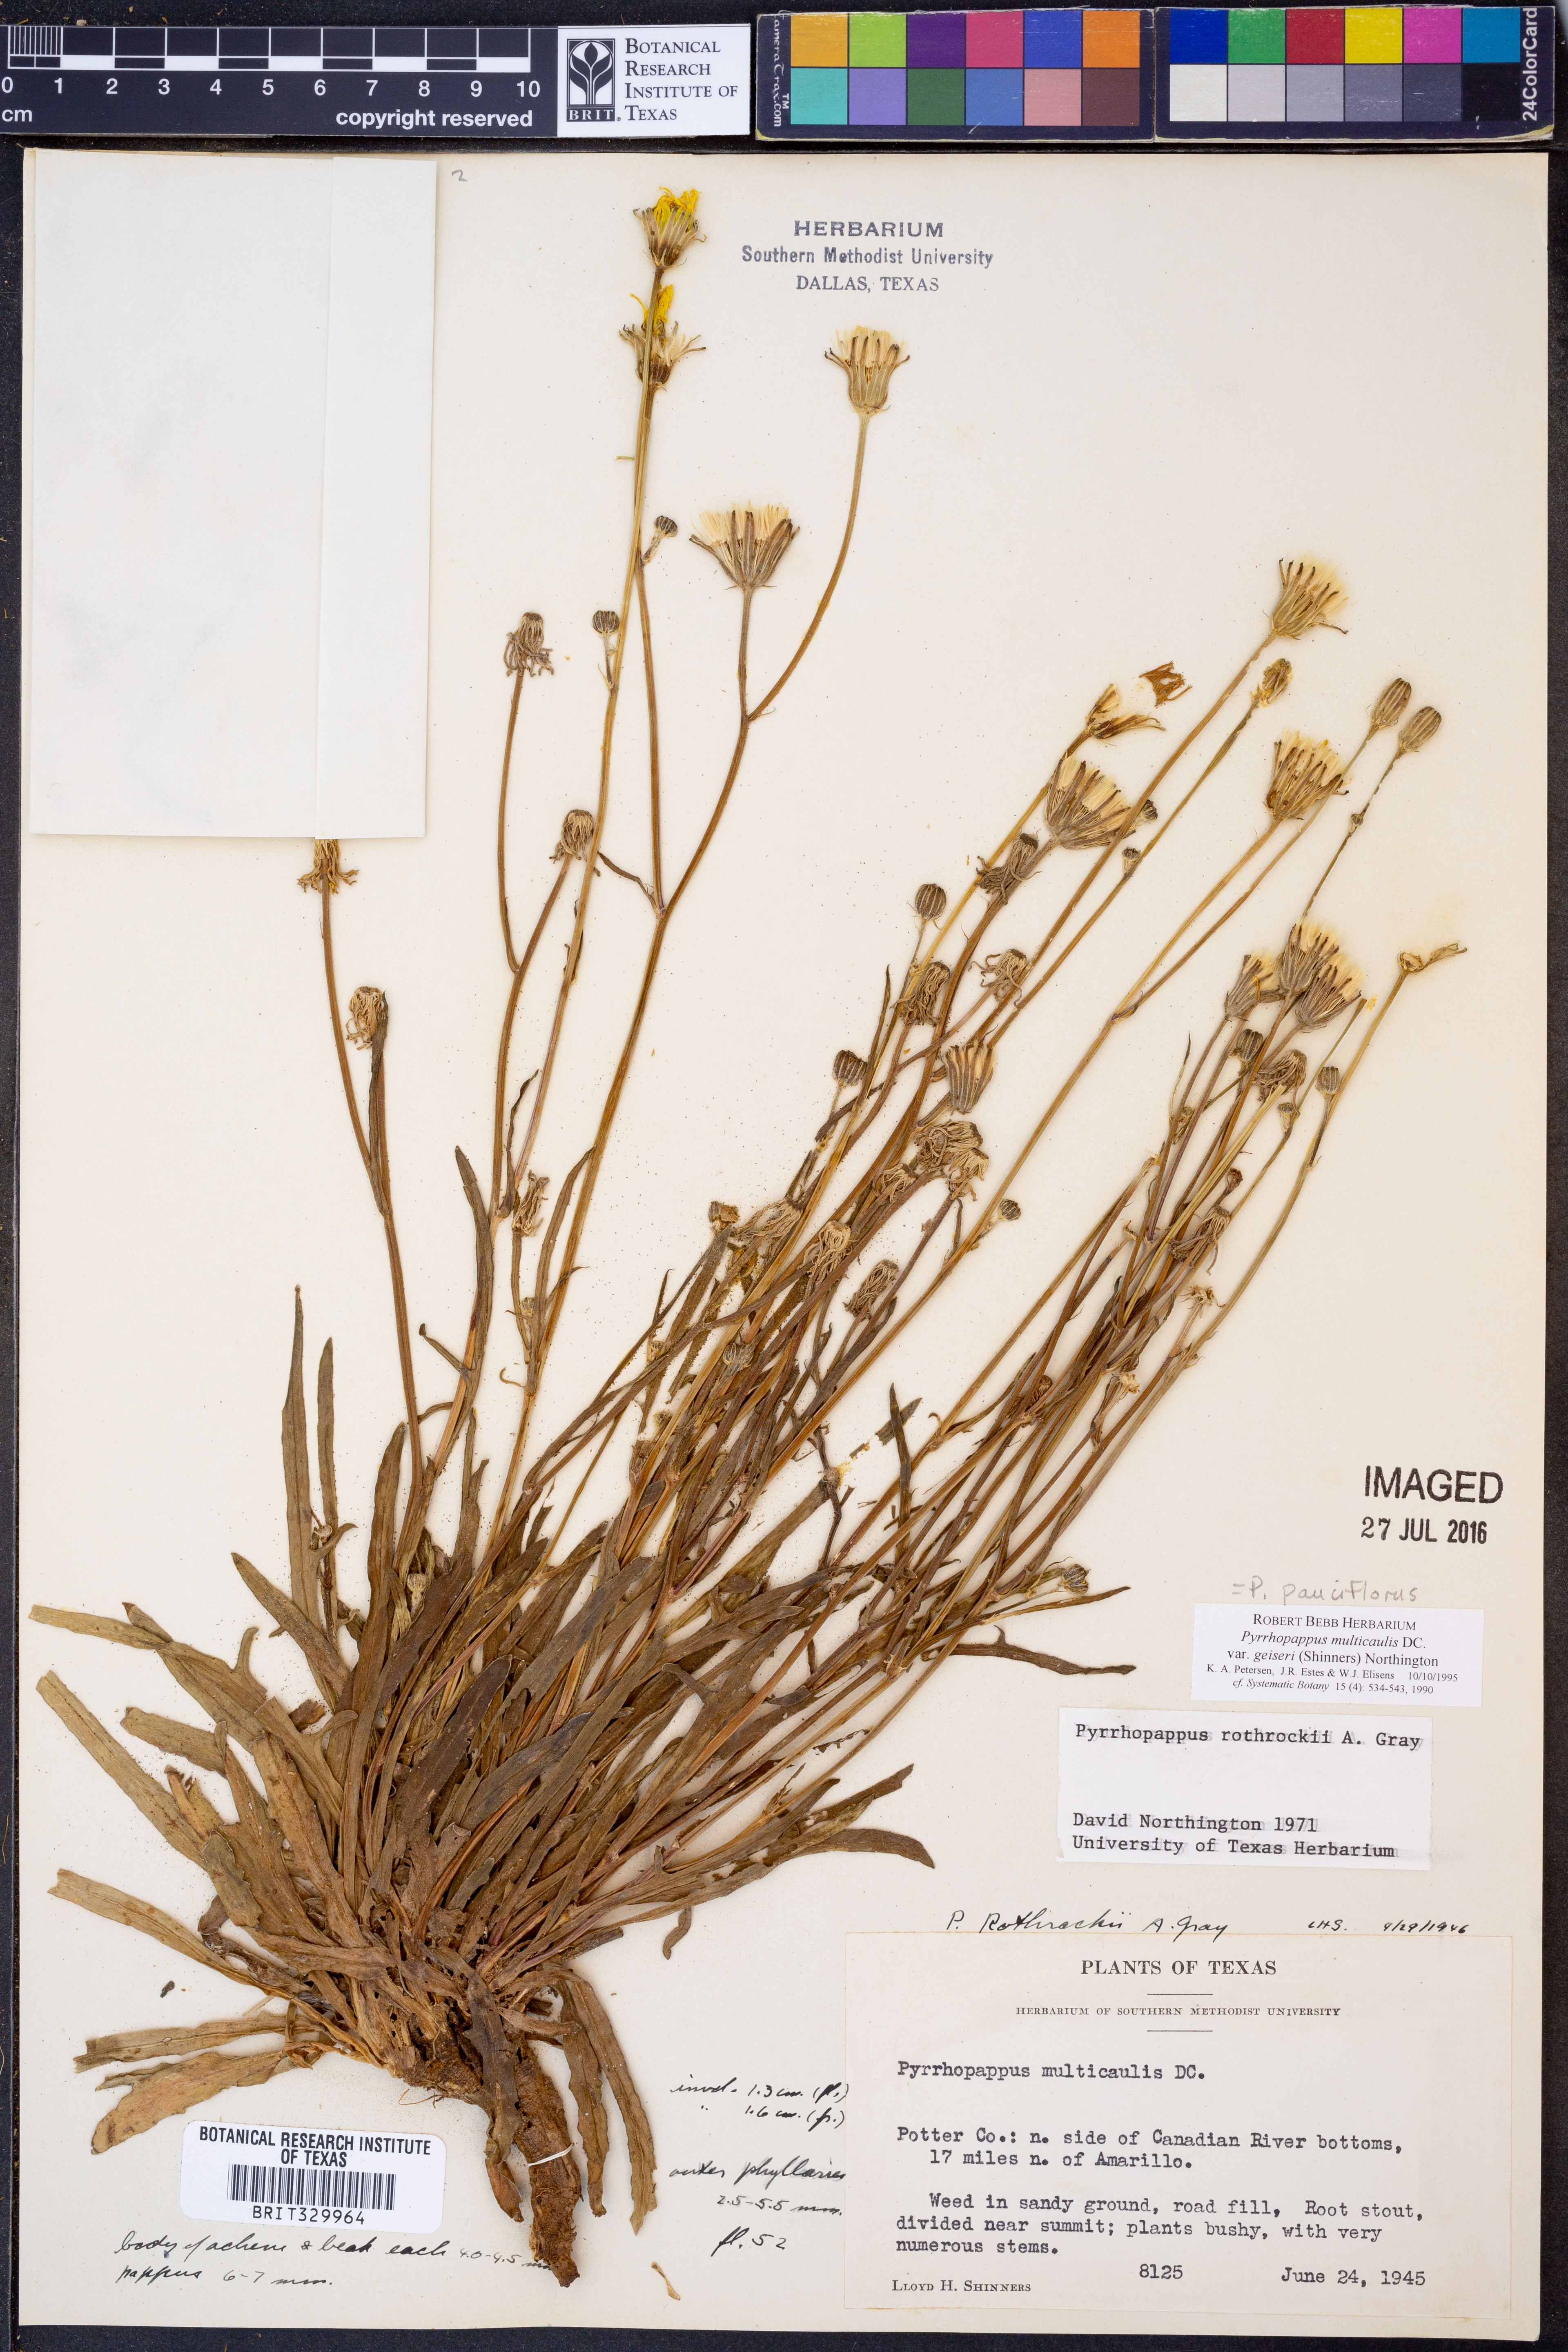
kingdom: Plantae
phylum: Tracheophyta
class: Magnoliopsida
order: Asterales
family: Asteraceae
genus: Pyrrhopappus
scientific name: Pyrrhopappus pauciflorus
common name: Texas false dandelion
